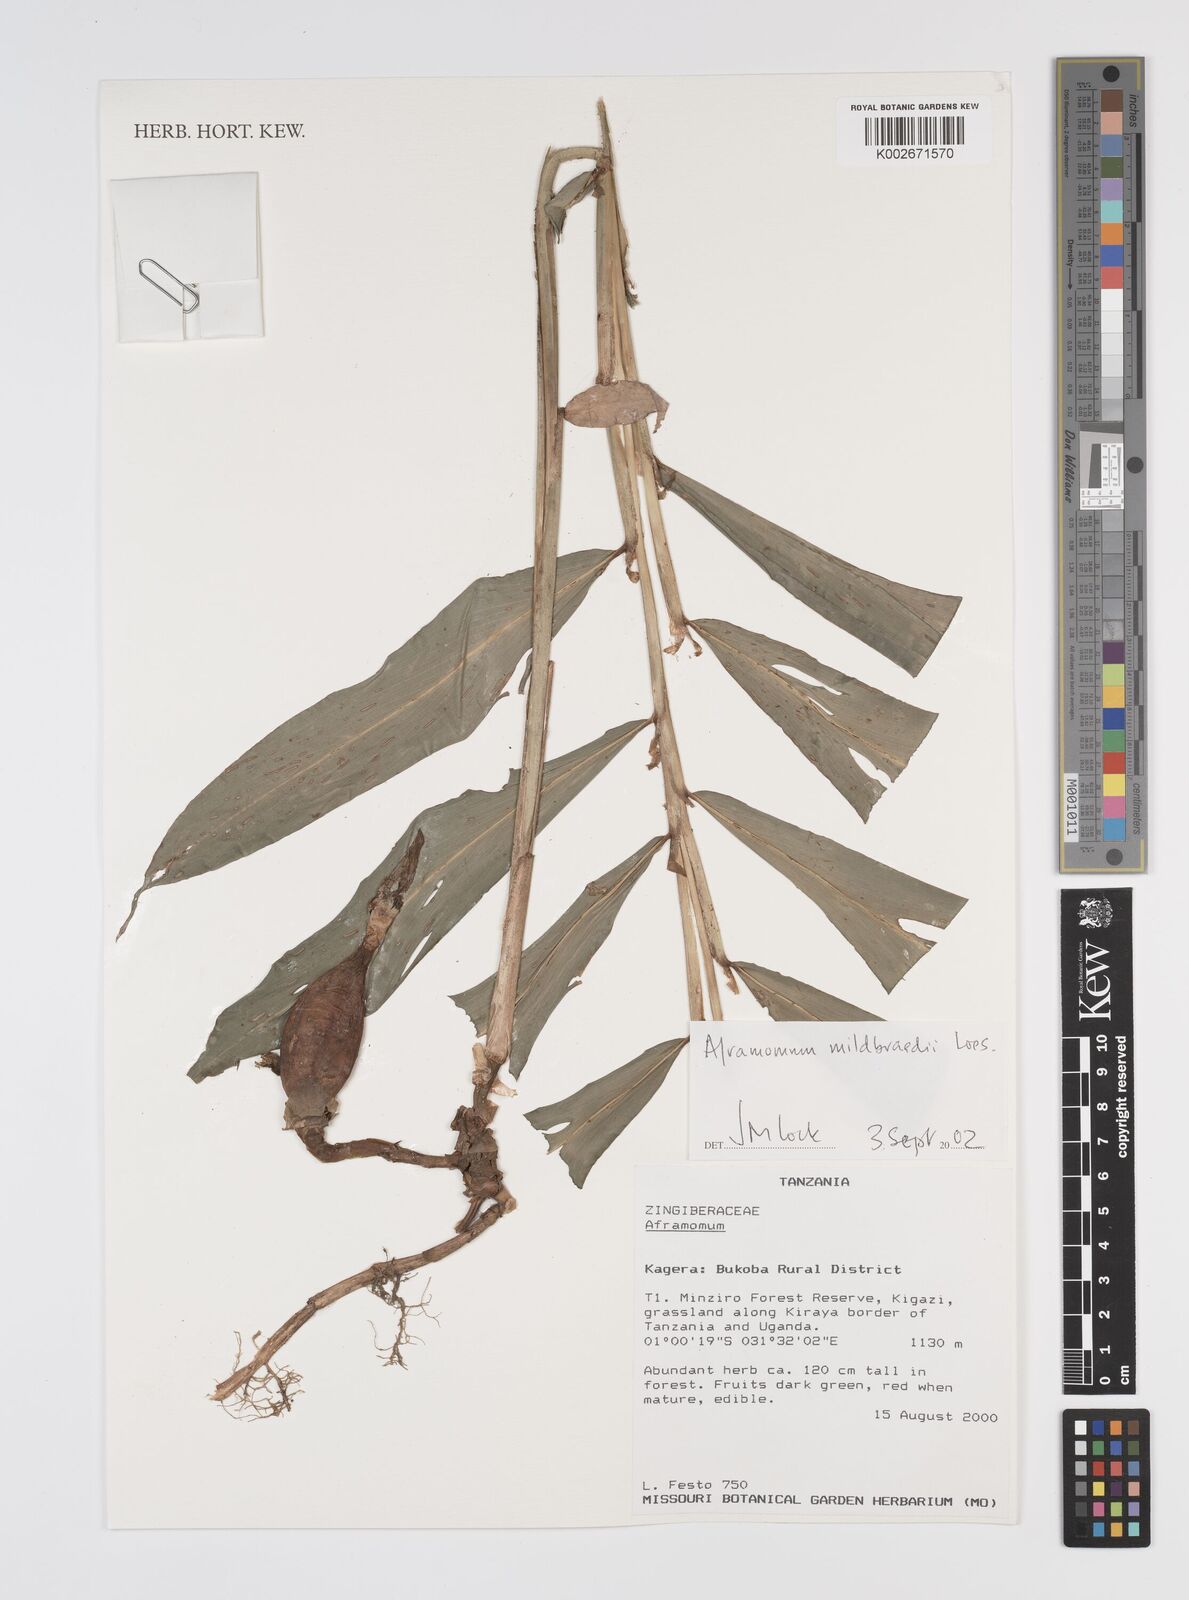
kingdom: Plantae
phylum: Tracheophyta
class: Liliopsida
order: Zingiberales
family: Zingiberaceae
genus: Aframomum
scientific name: Aframomum mildbraedii
